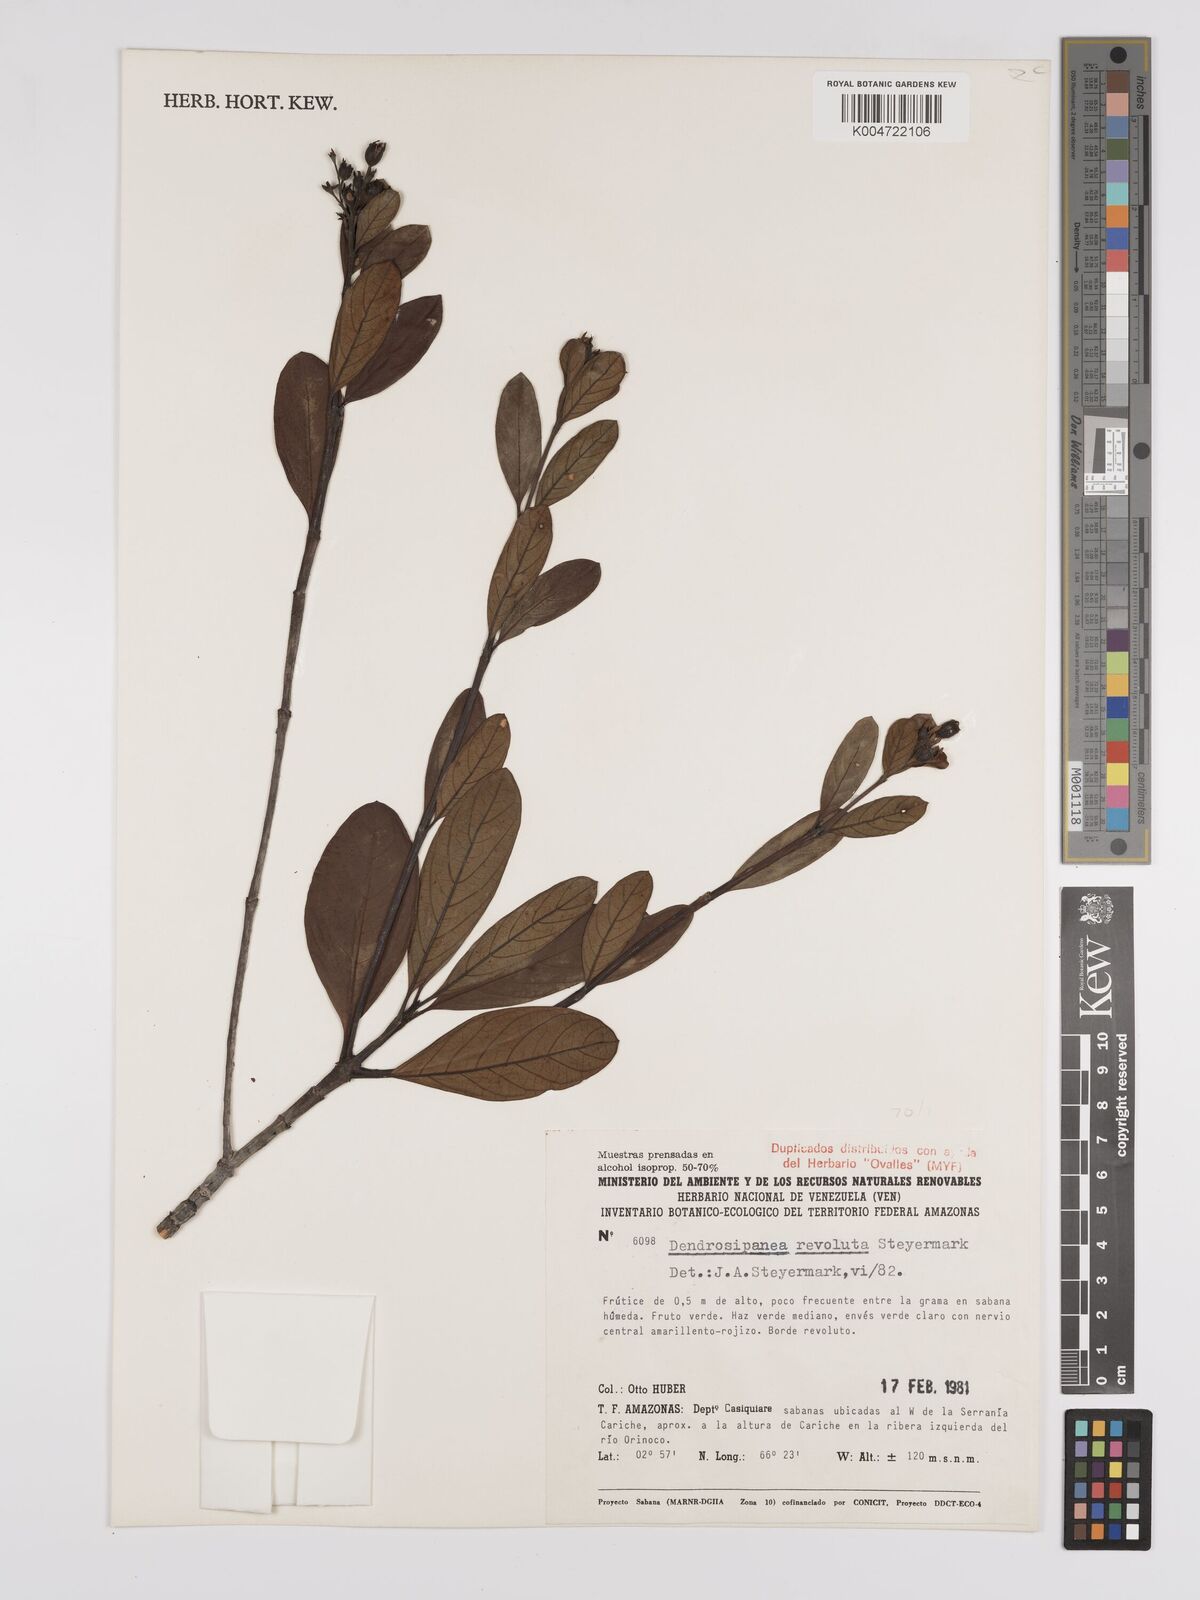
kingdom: Plantae
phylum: Tracheophyta
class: Magnoliopsida
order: Gentianales
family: Rubiaceae
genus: Dendrosipanea
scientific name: Dendrosipanea revoluta
